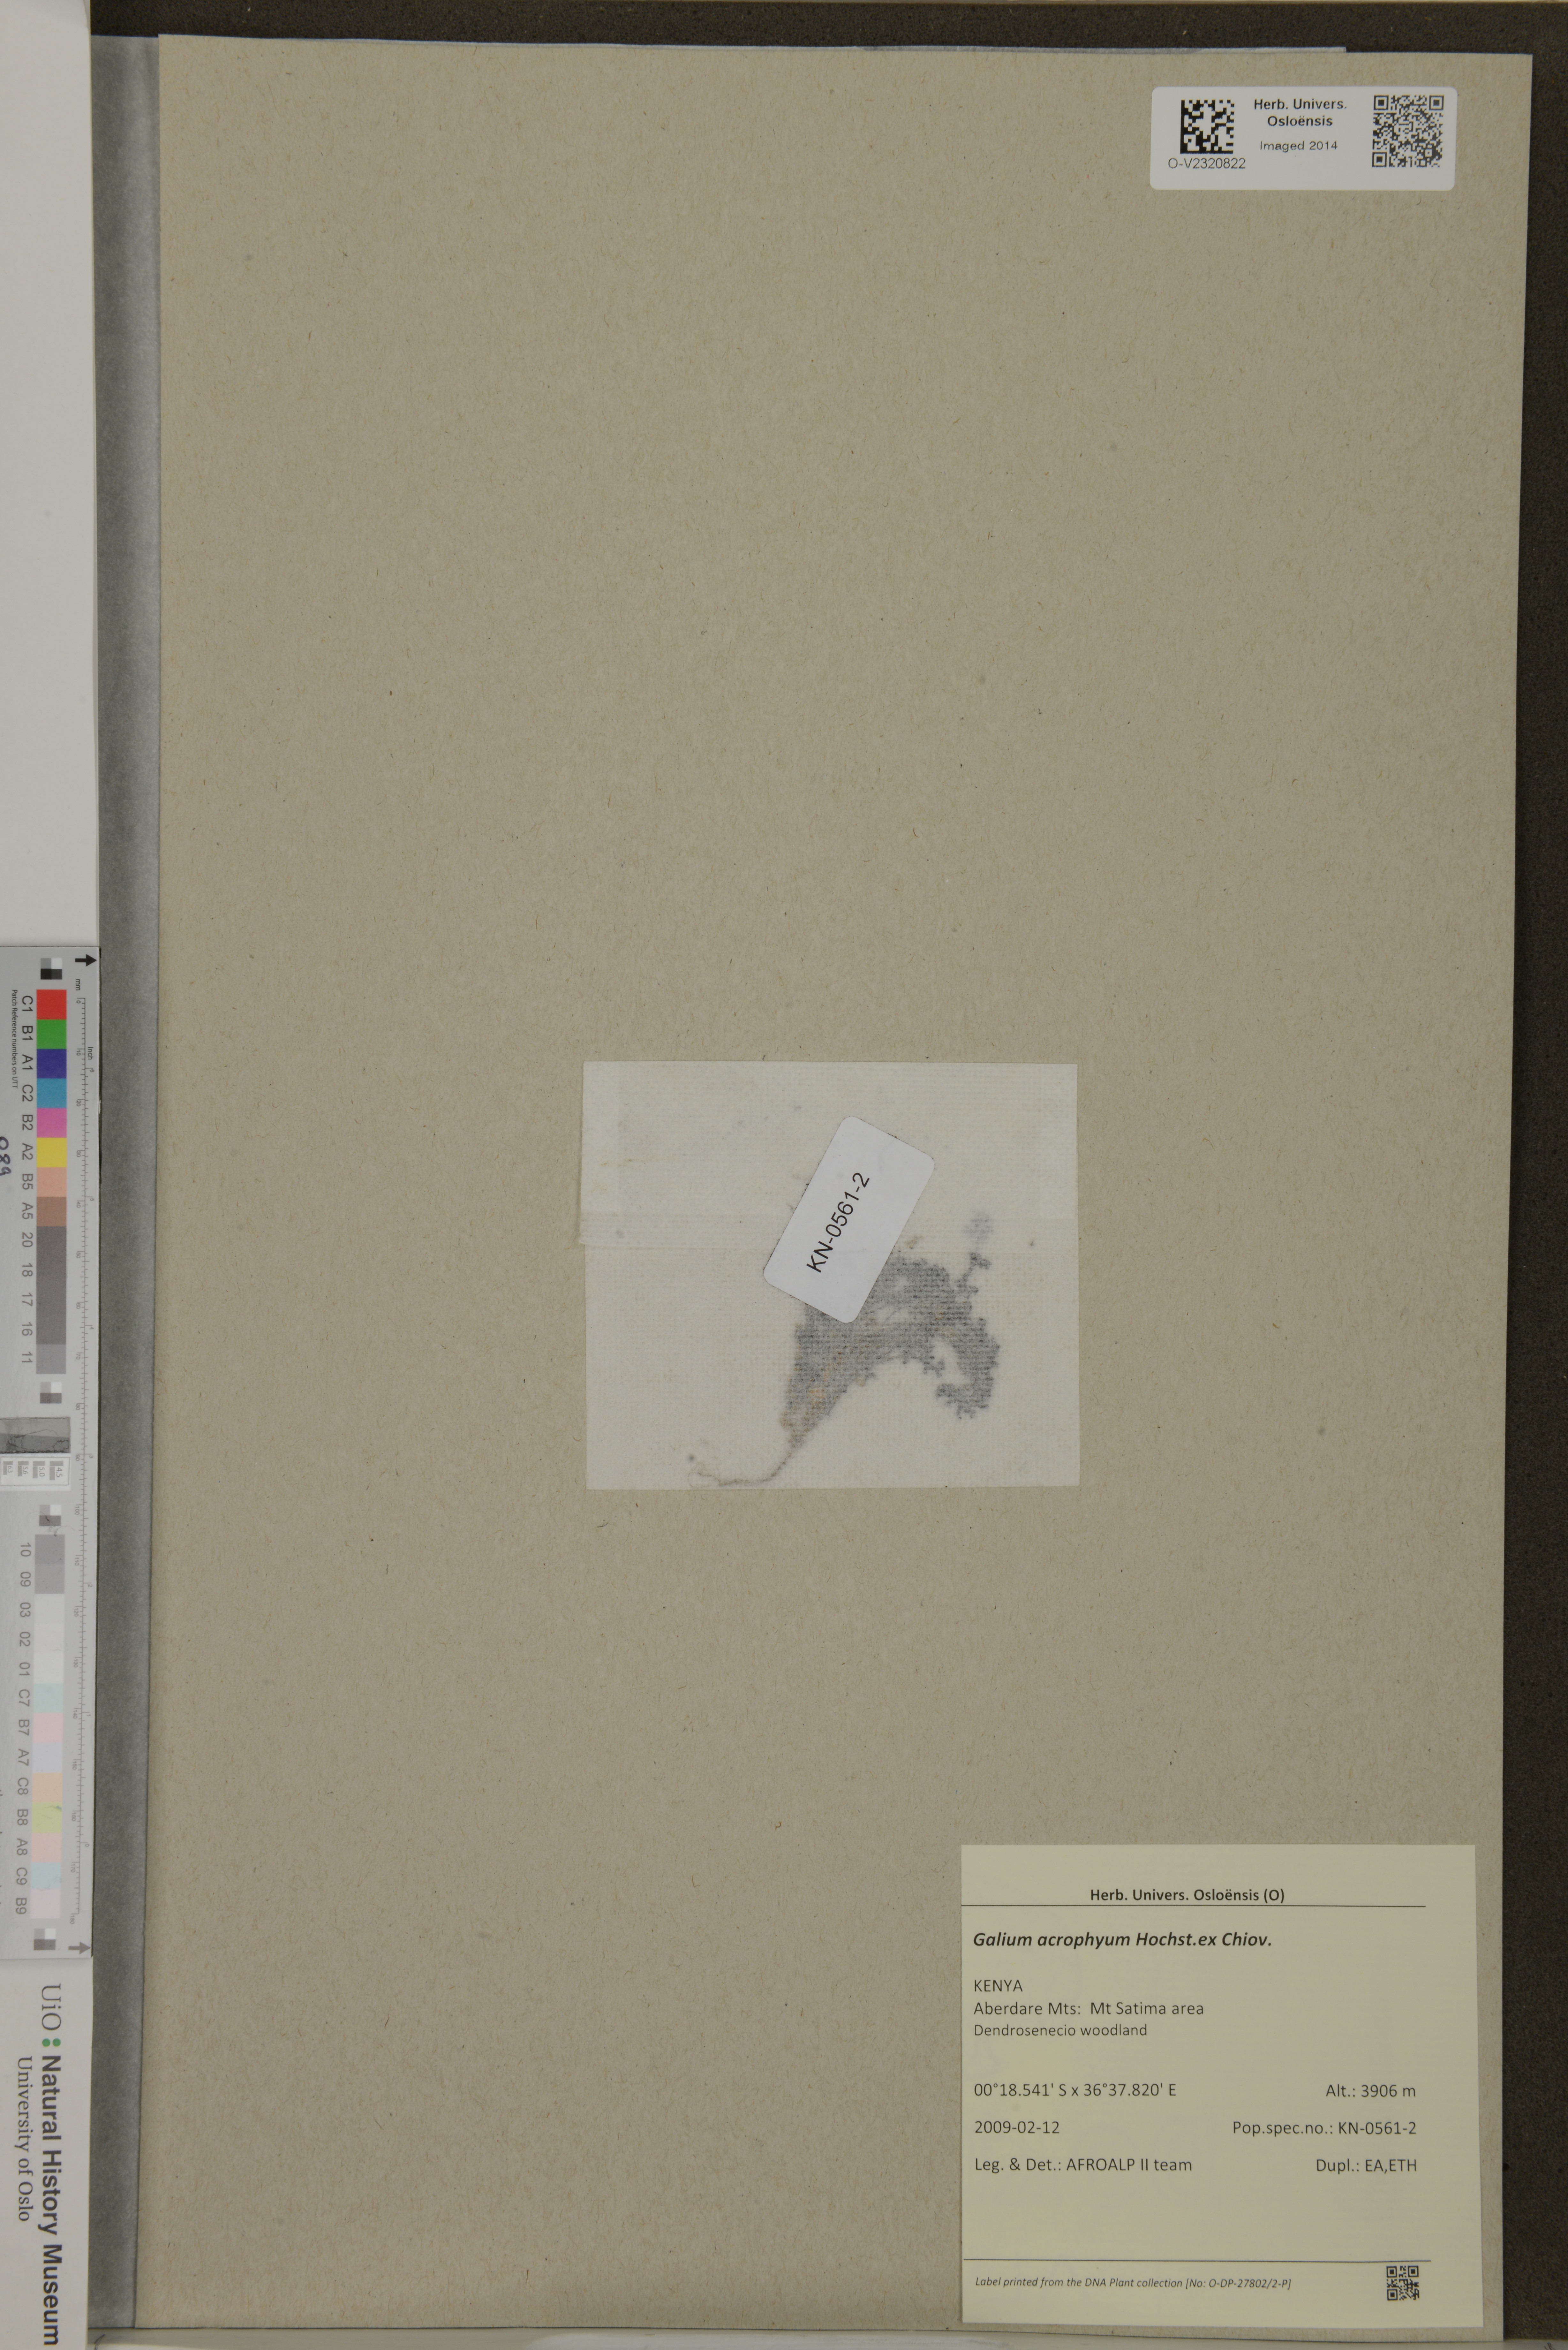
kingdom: Plantae
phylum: Tracheophyta
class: Magnoliopsida
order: Gentianales
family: Rubiaceae
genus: Galium
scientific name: Galium acrophyum
